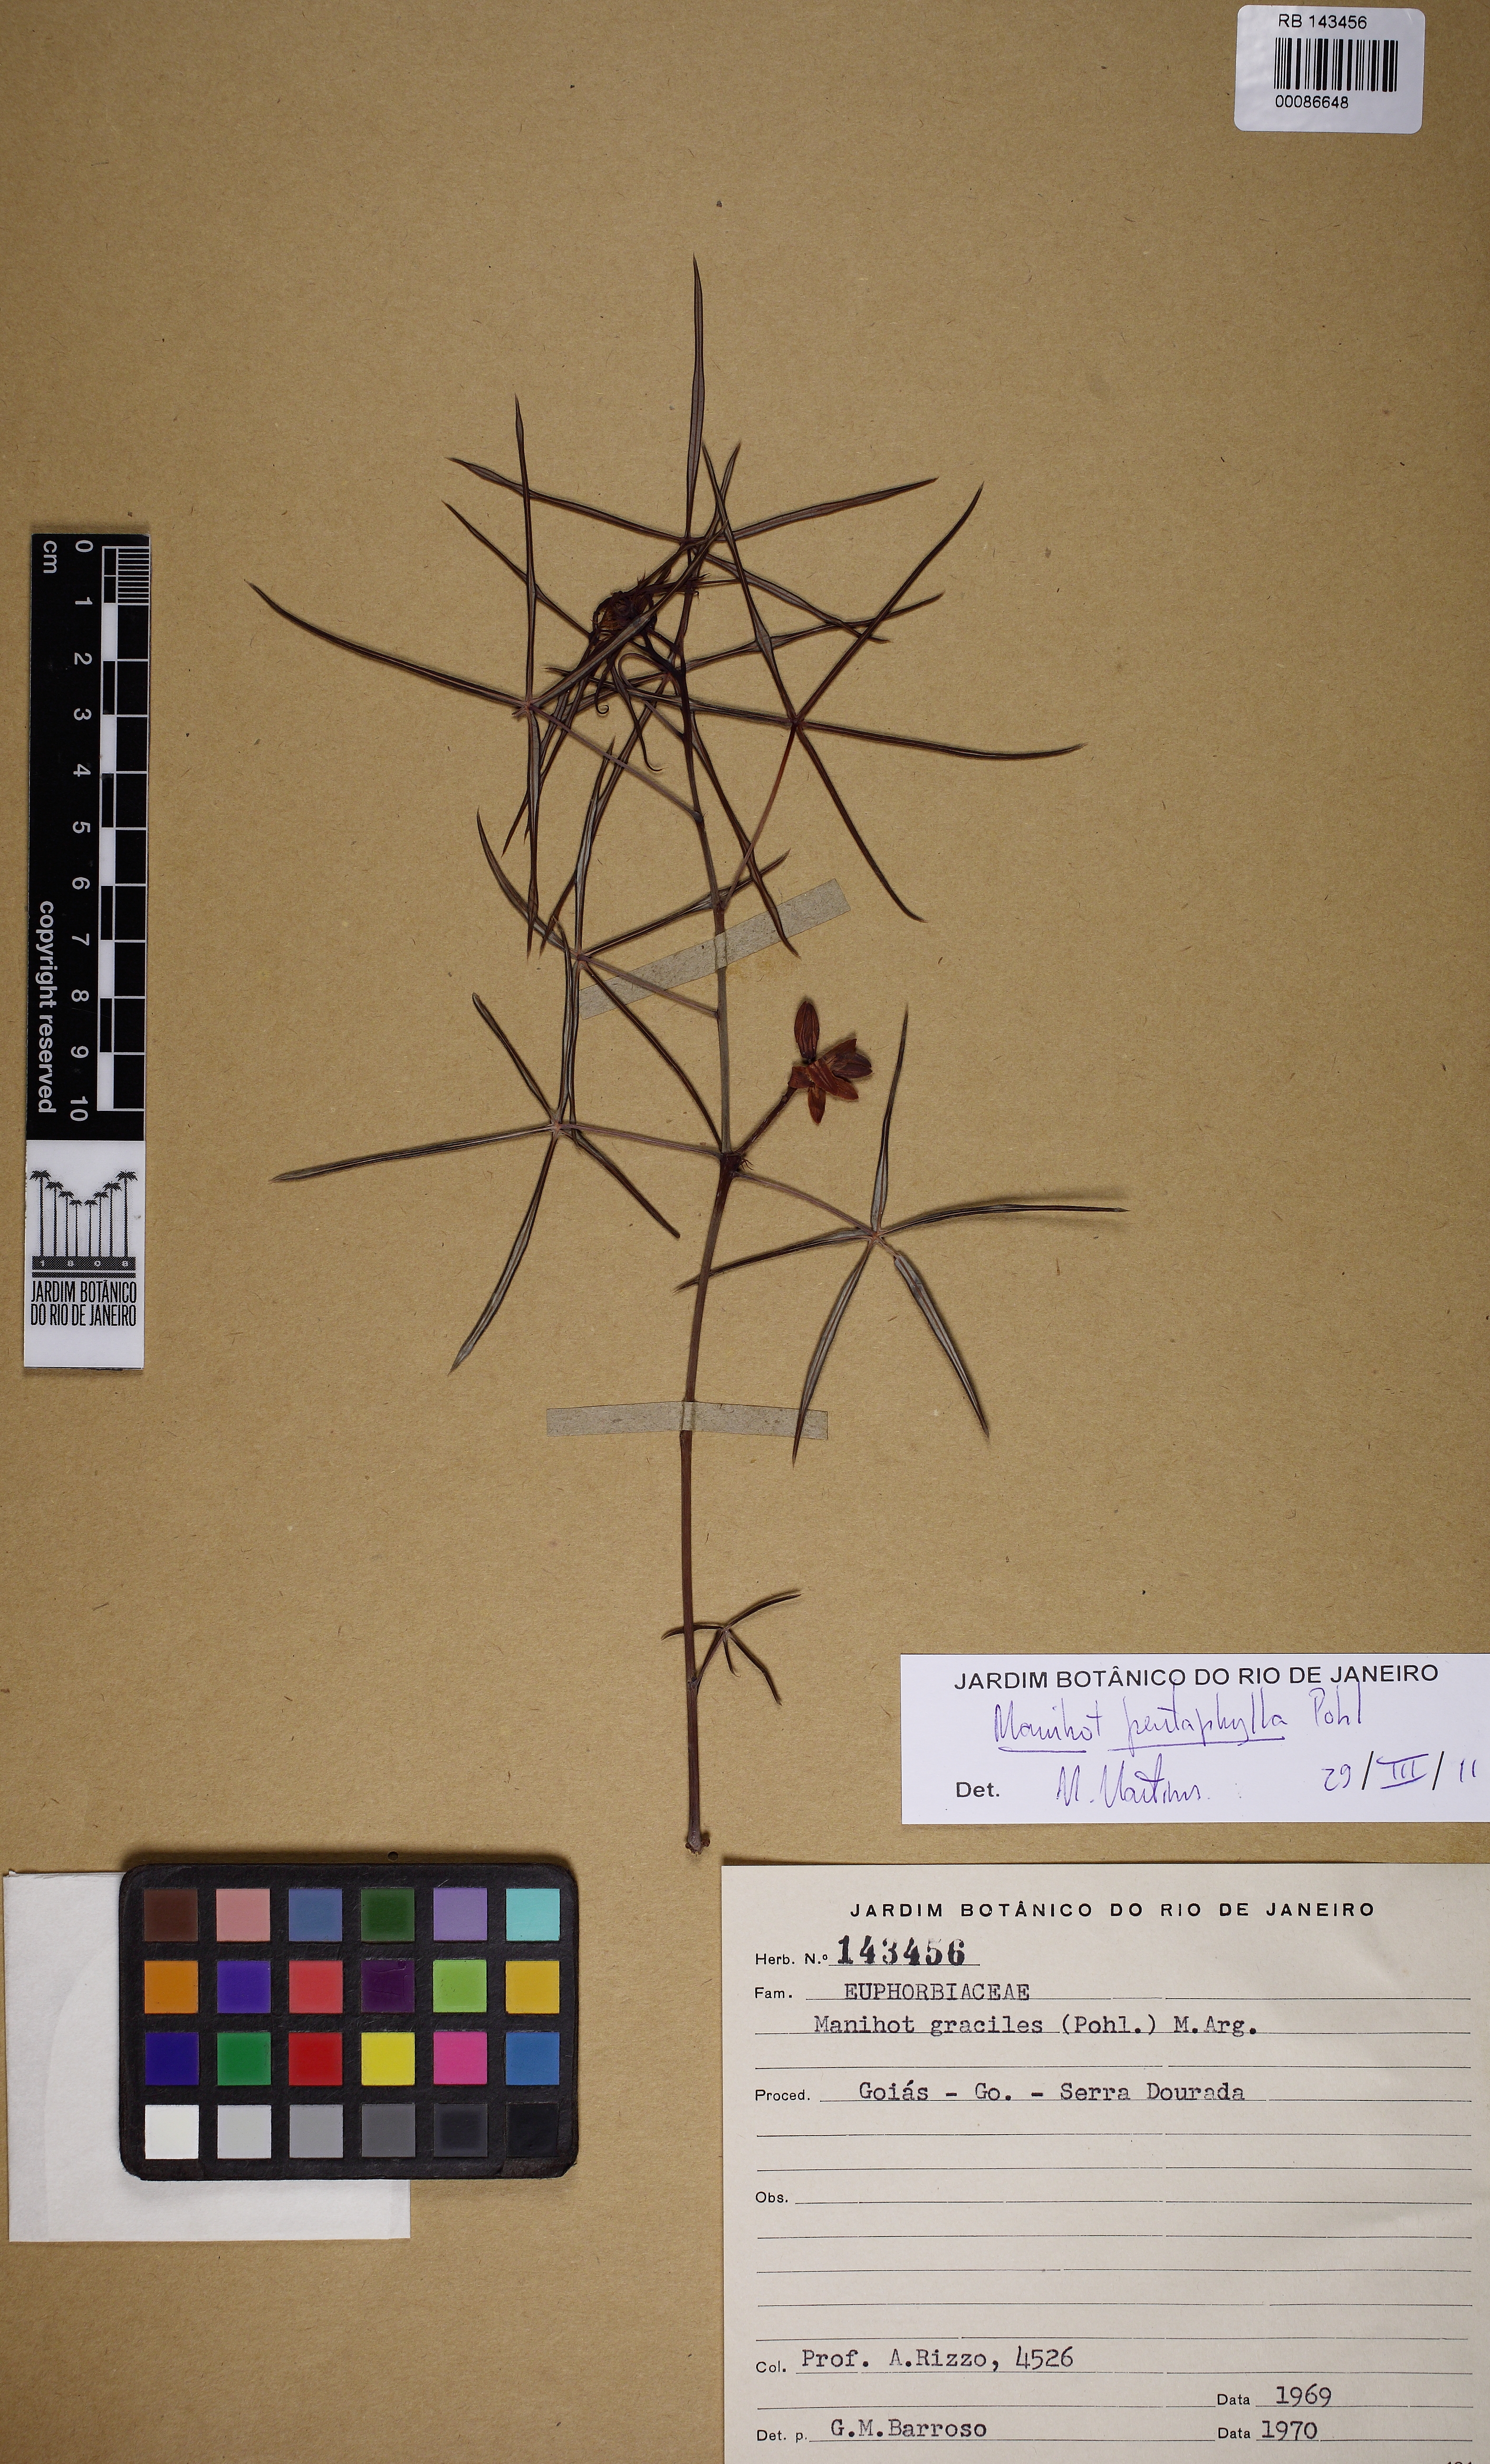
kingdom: Plantae
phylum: Tracheophyta
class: Magnoliopsida
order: Malpighiales
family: Euphorbiaceae
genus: Manihot
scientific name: Manihot tenella
